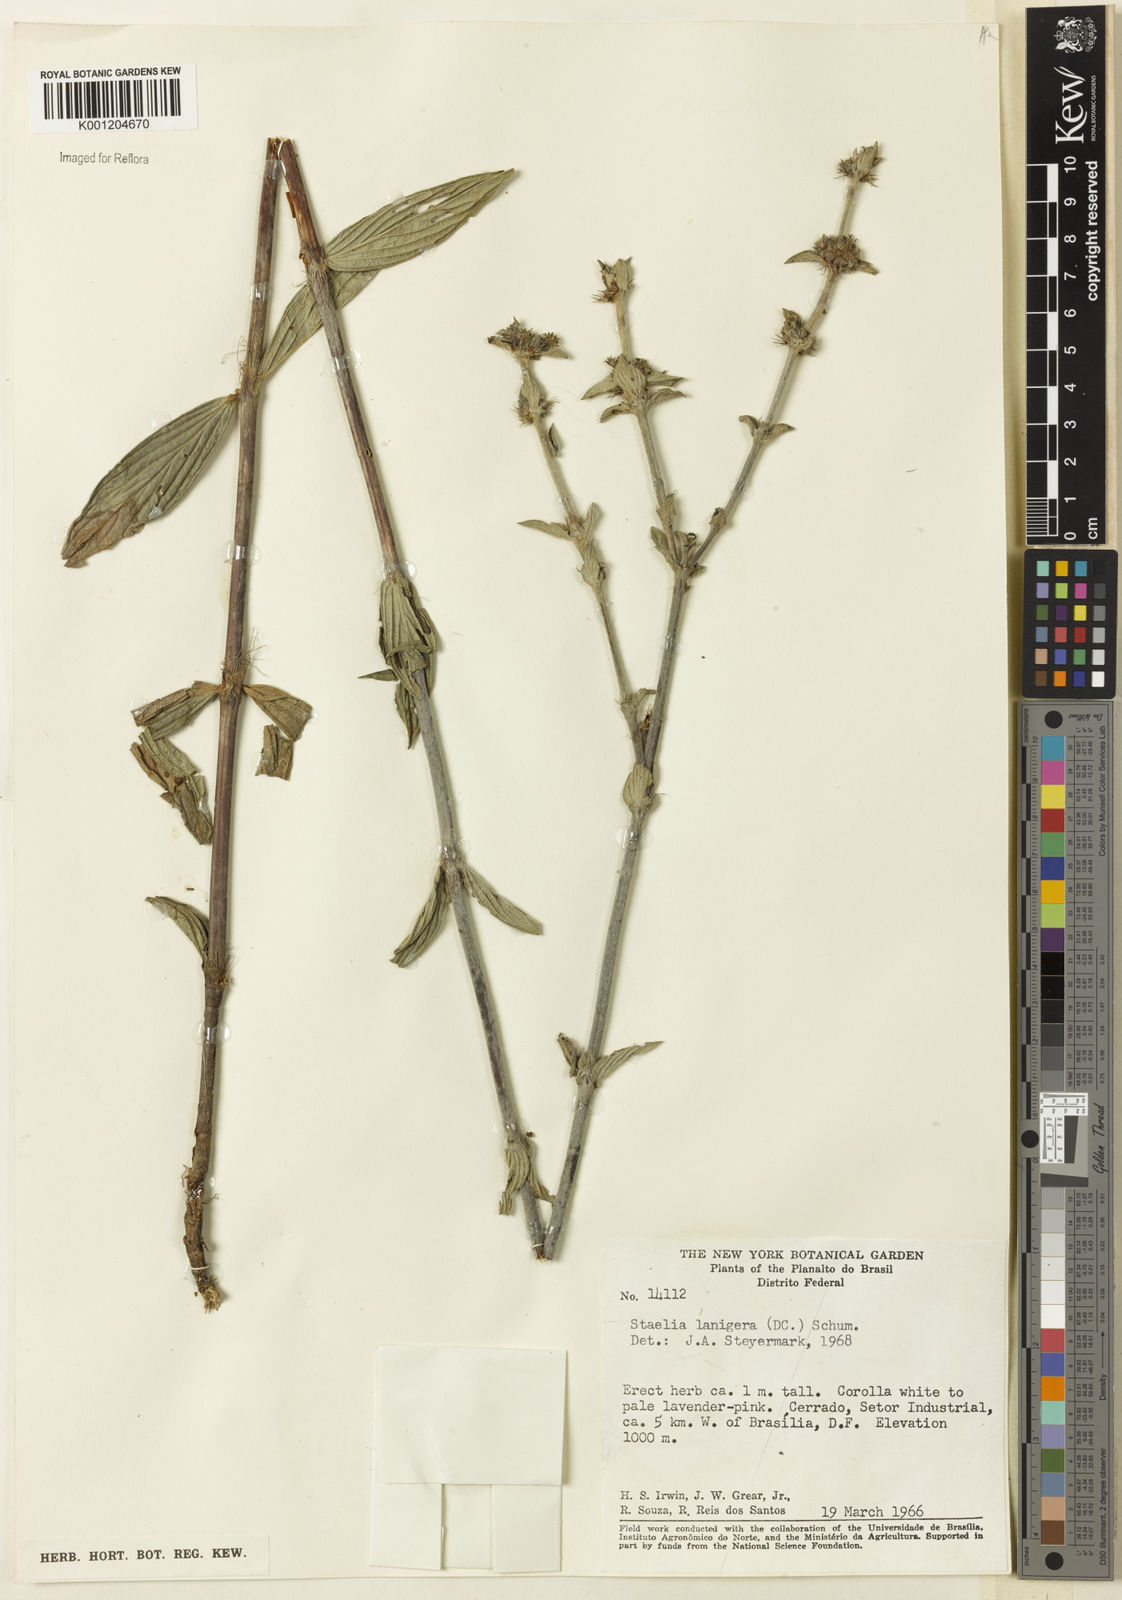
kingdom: Plantae
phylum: Tracheophyta
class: Magnoliopsida
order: Gentianales
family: Rubiaceae
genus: Planaltina
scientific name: Planaltina capitata
